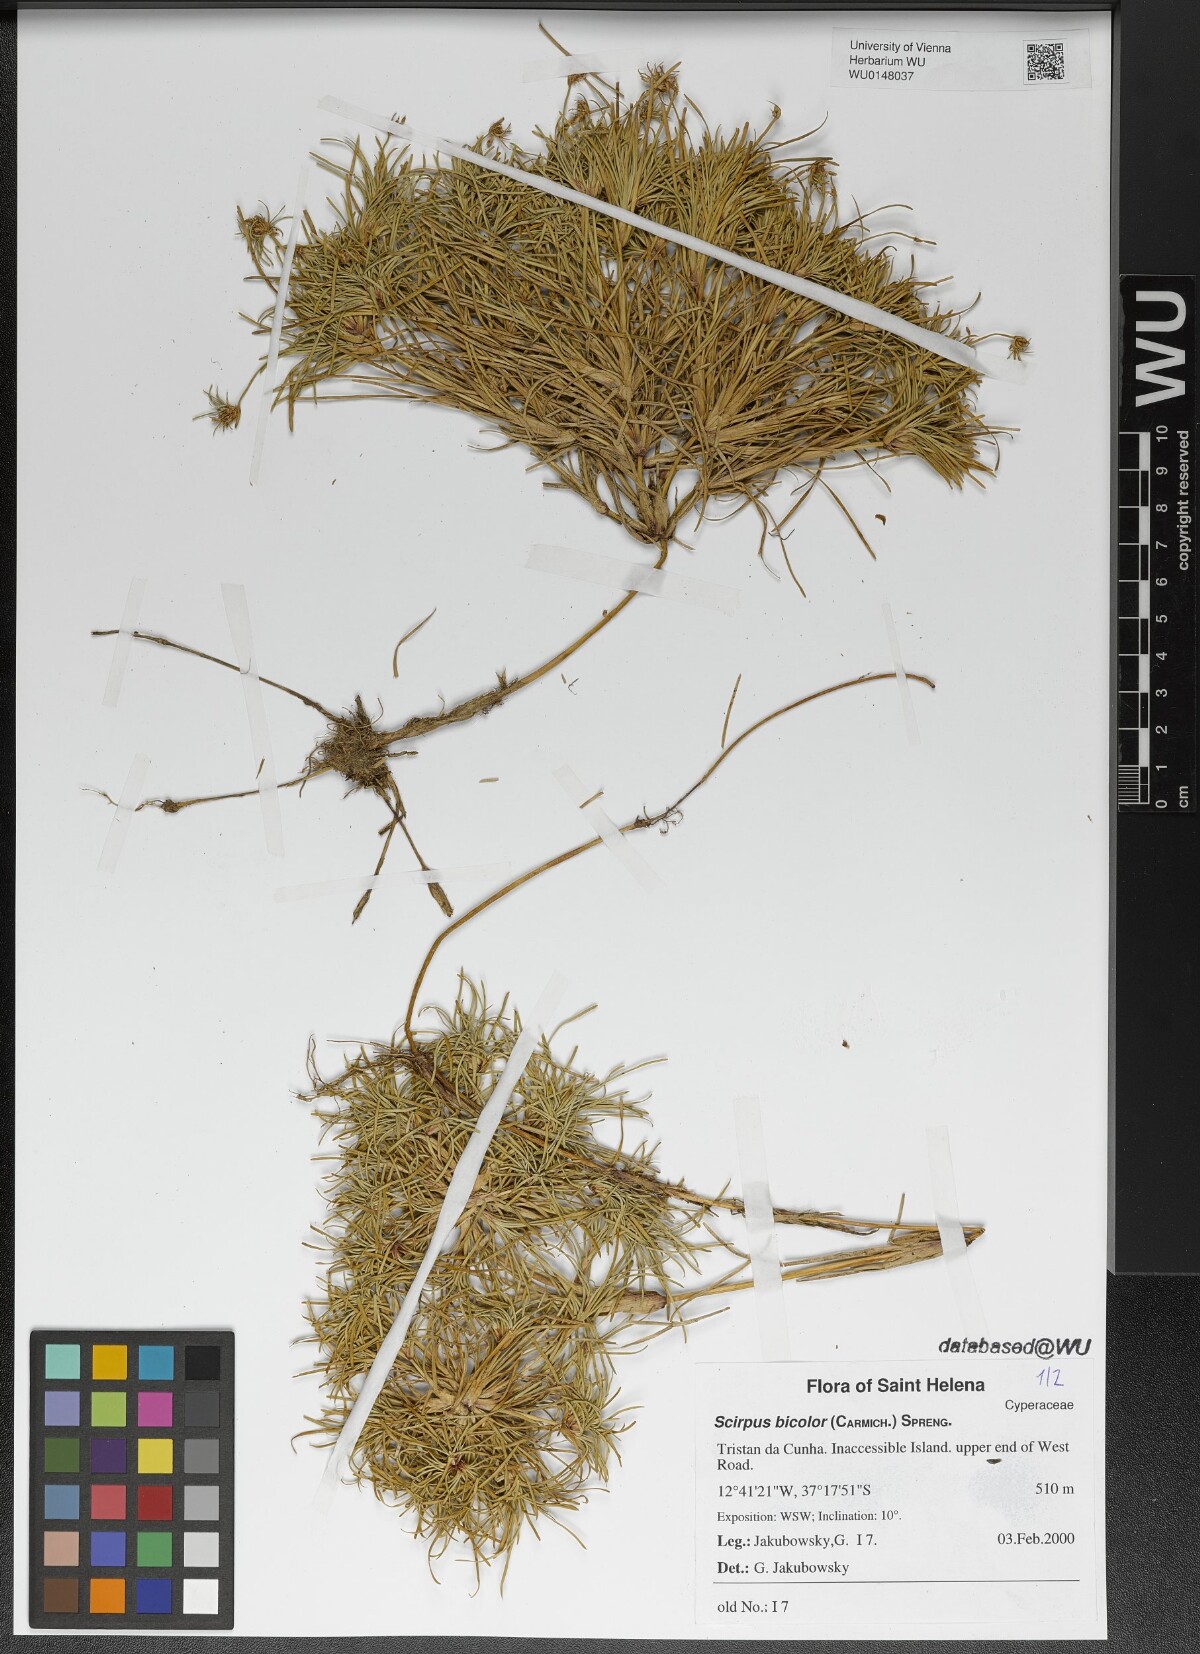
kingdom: Plantae
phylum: Tracheophyta
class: Liliopsida
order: Poales
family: Cyperaceae
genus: Isolepis
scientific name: Isolepis bicolor
